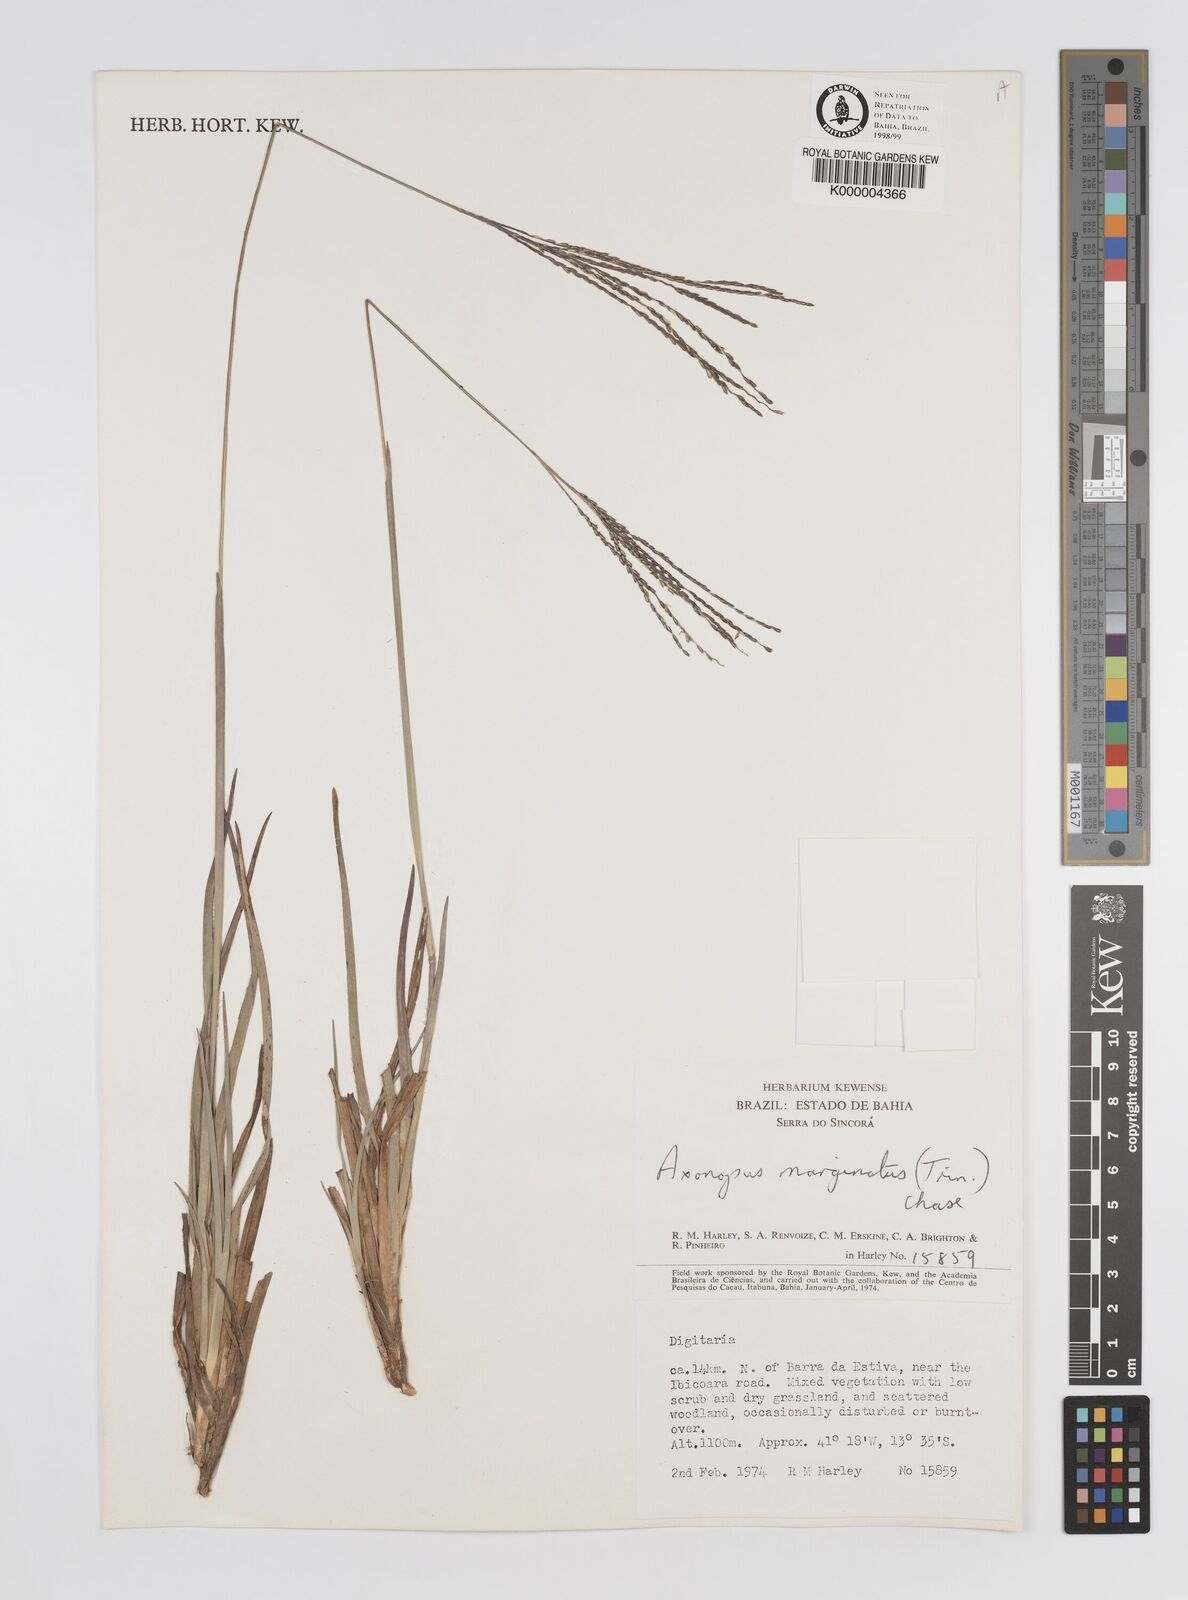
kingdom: Plantae
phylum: Tracheophyta
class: Liliopsida
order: Poales
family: Poaceae
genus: Axonopus
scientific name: Axonopus
